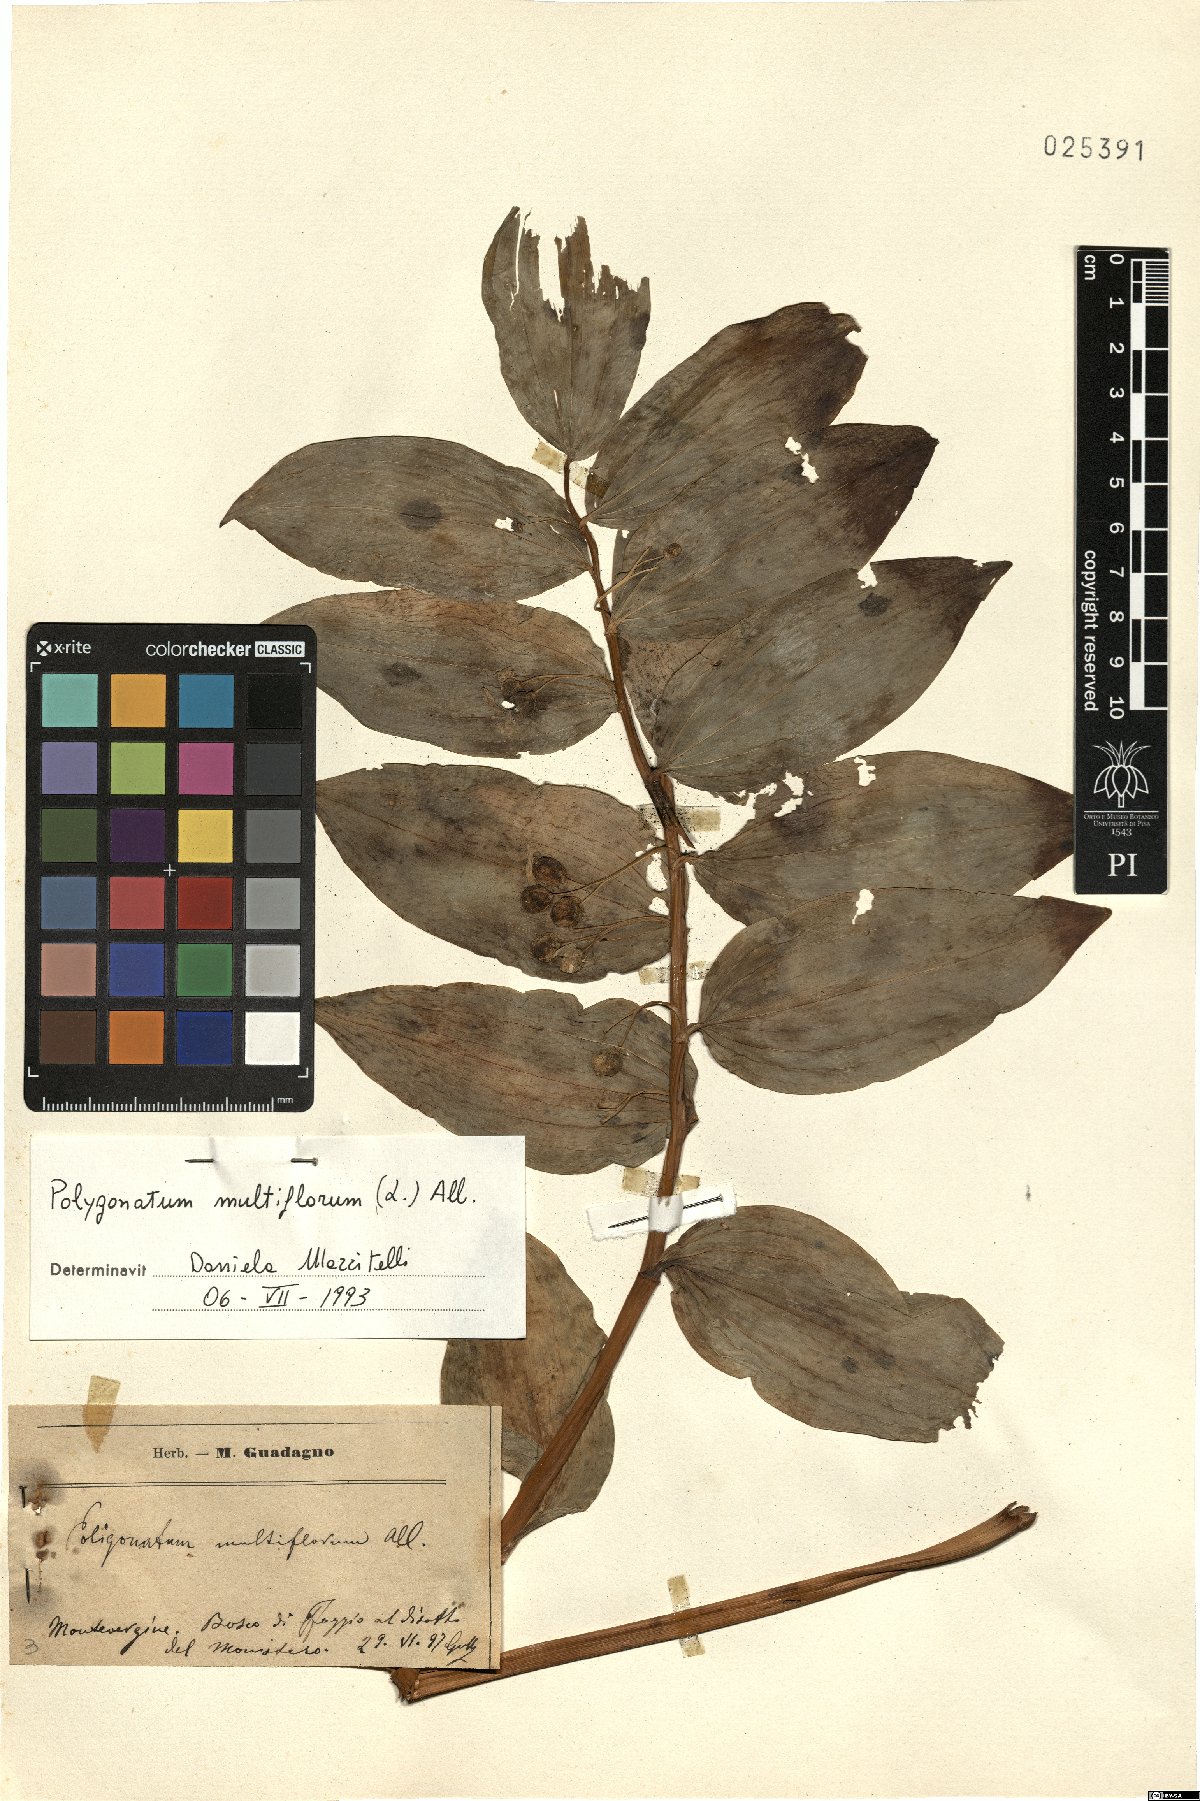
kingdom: Plantae
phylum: Tracheophyta
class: Liliopsida
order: Asparagales
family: Asparagaceae
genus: Polygonatum
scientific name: Polygonatum multiflorum
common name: Solomon's-seal
